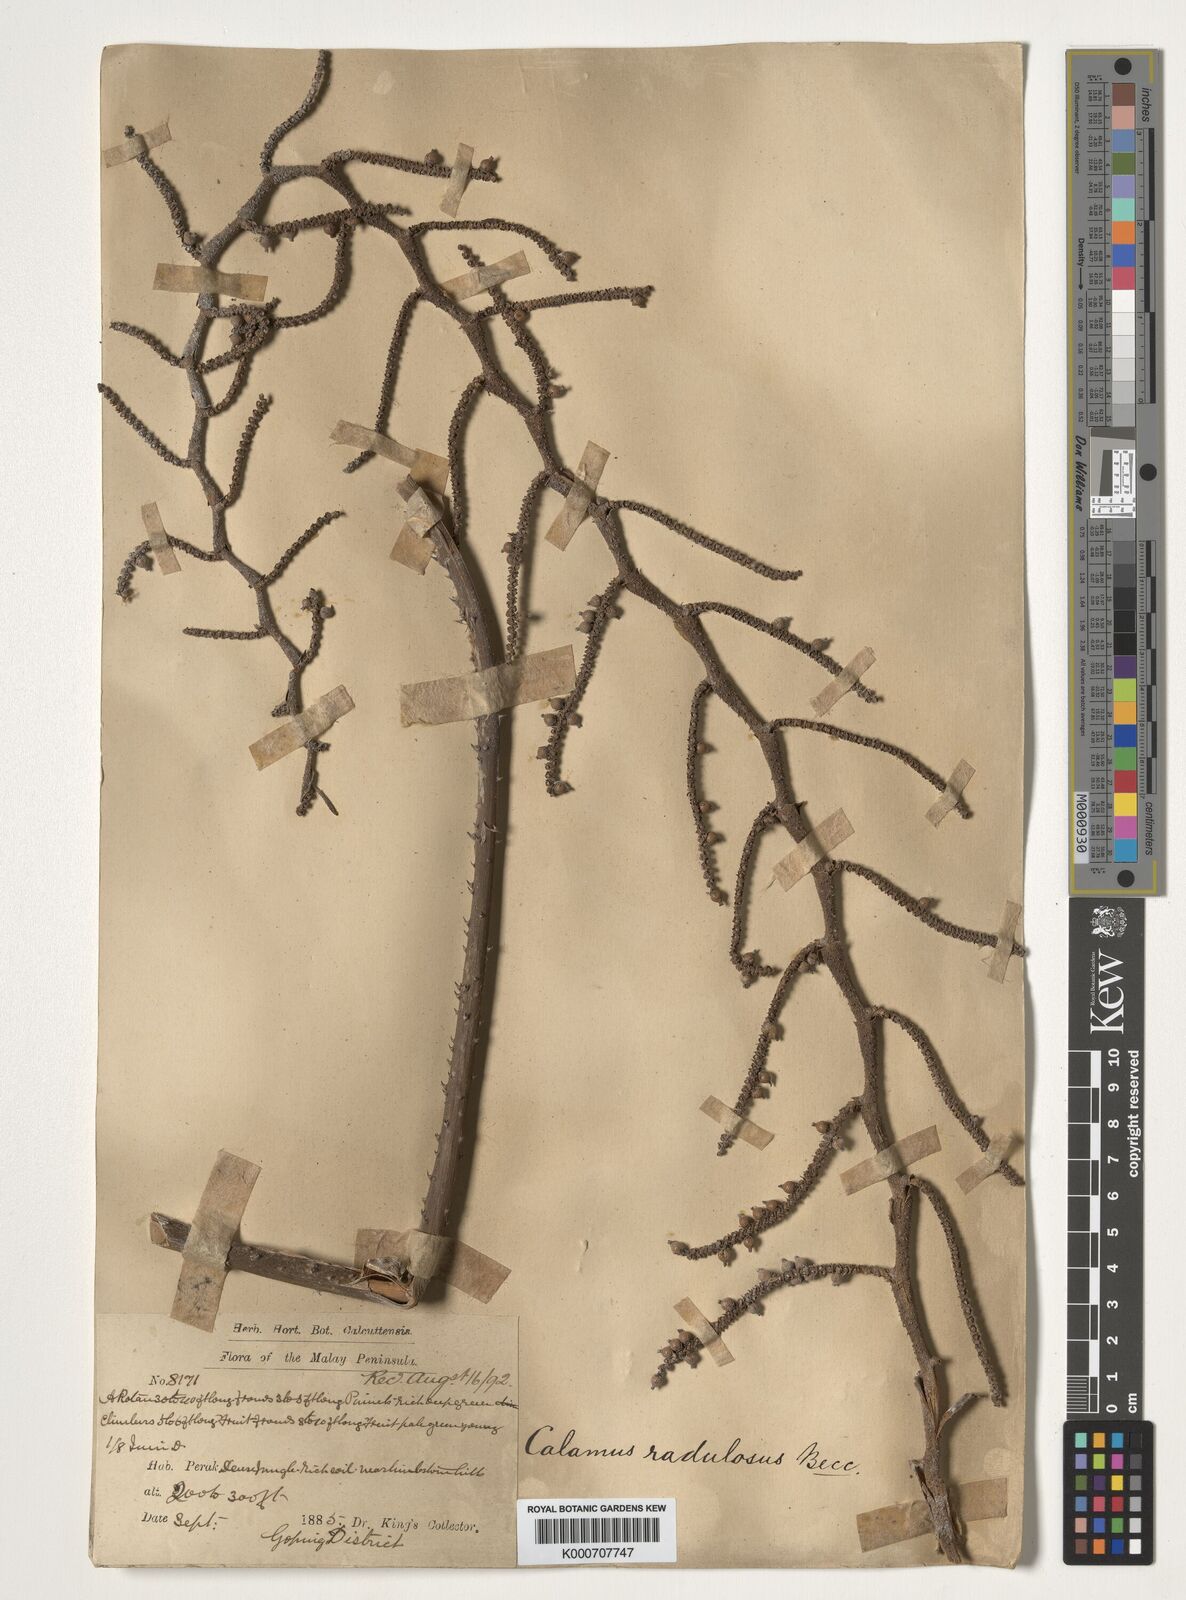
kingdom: Plantae
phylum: Tracheophyta
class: Liliopsida
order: Arecales
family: Arecaceae
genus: Calamus
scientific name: Calamus radulosus
